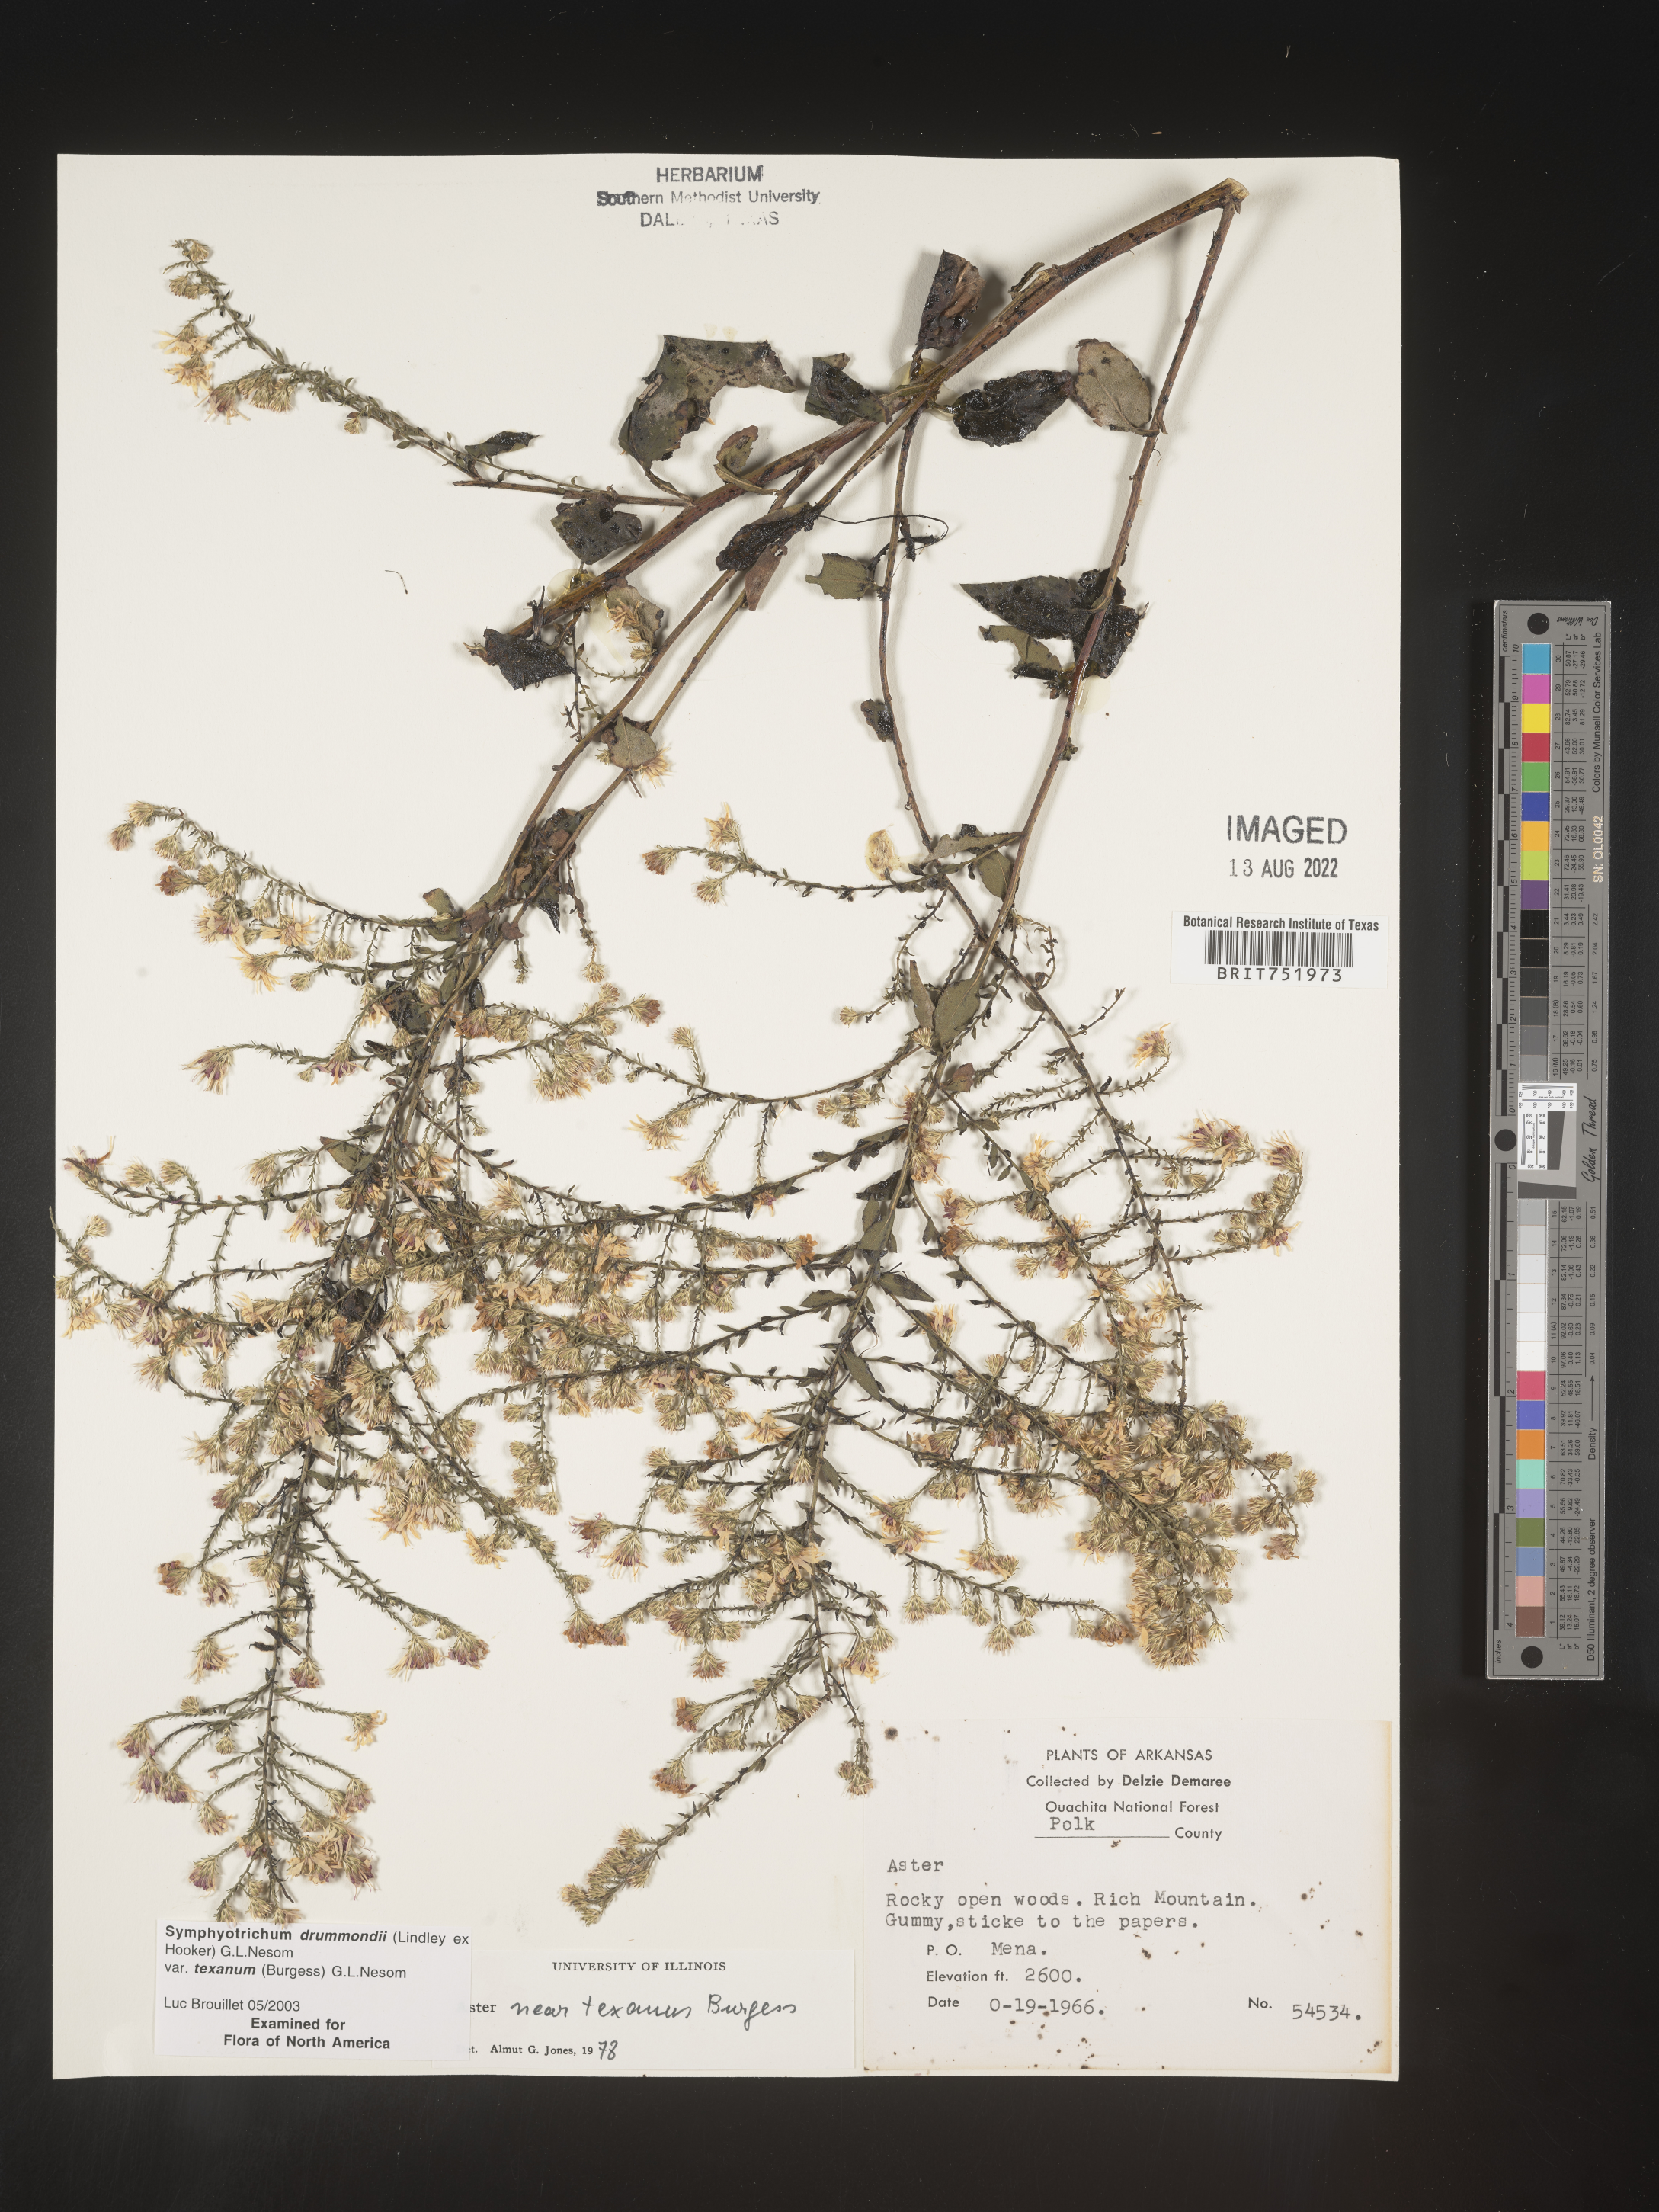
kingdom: Plantae
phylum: Tracheophyta
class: Magnoliopsida
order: Asterales
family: Asteraceae
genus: Symphyotrichum
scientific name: Symphyotrichum drummondii
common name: Drummond's aster
